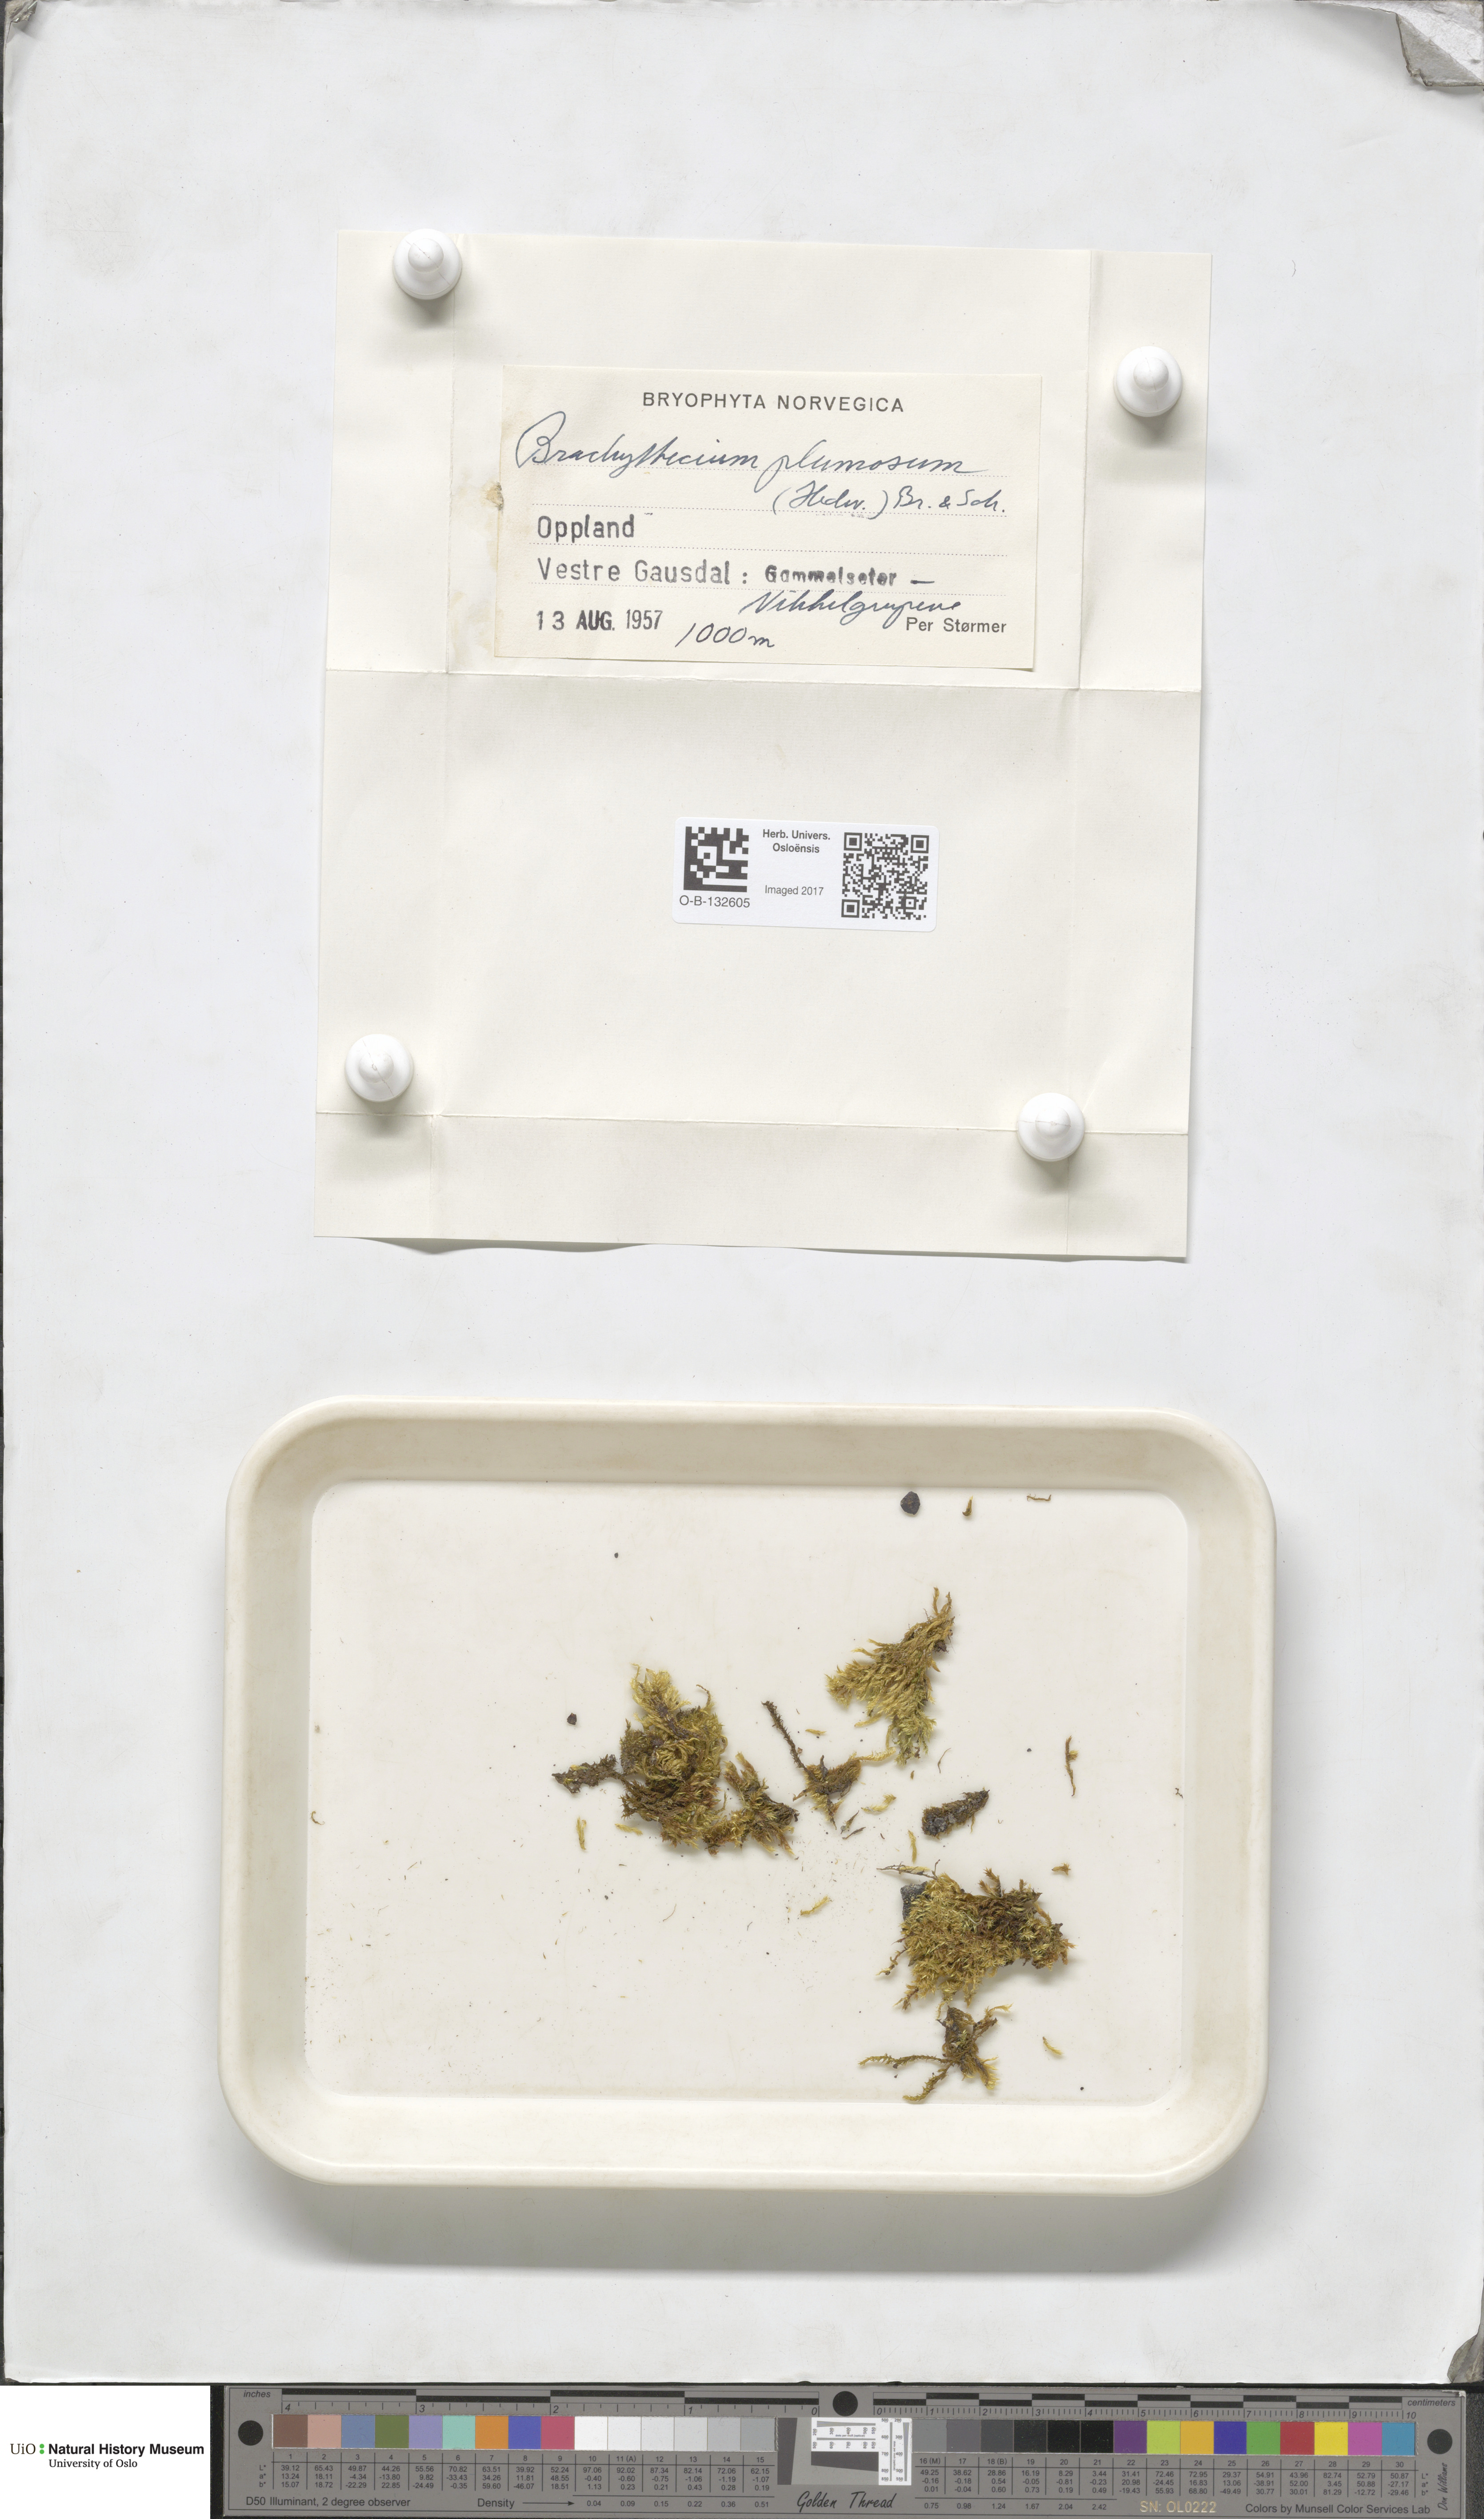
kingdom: Plantae
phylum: Bryophyta
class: Bryopsida
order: Hypnales
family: Brachytheciaceae
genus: Sciuro-hypnum
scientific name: Sciuro-hypnum plumosum
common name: Rusty feather-moss
